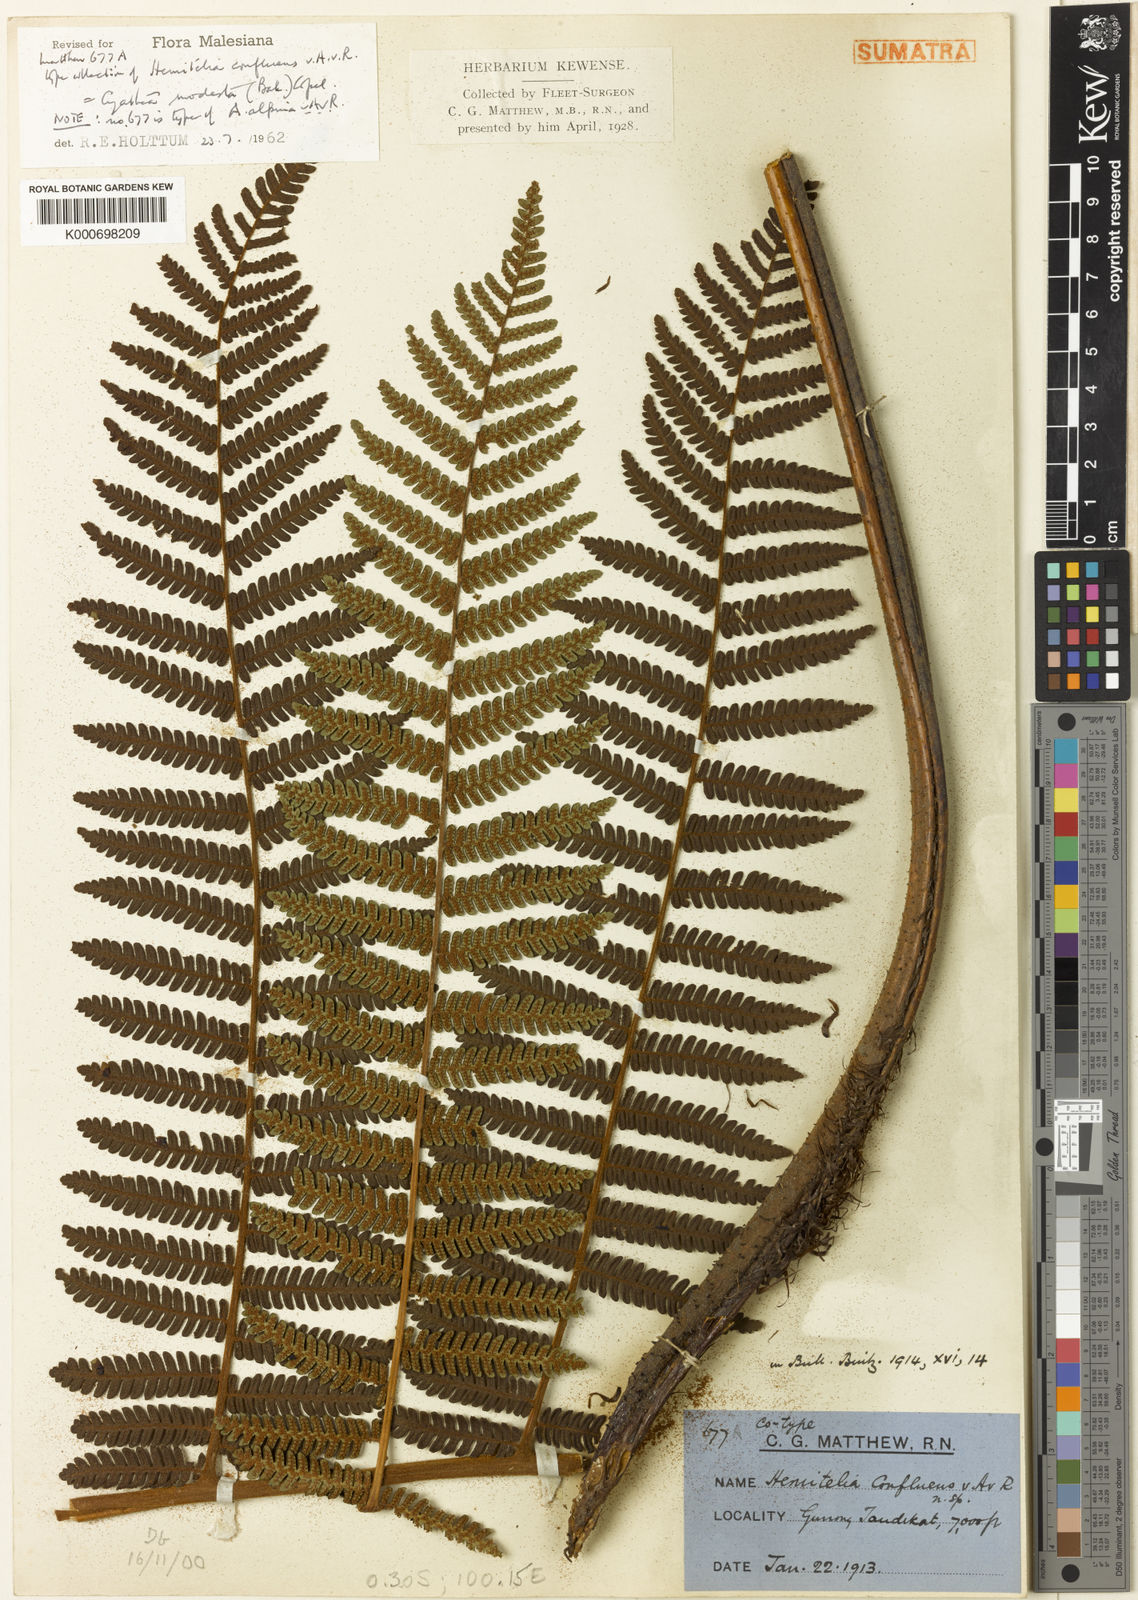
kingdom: Plantae
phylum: Tracheophyta
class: Polypodiopsida
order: Cyatheales
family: Cyatheaceae
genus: Alsophila
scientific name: Alsophila modesta
